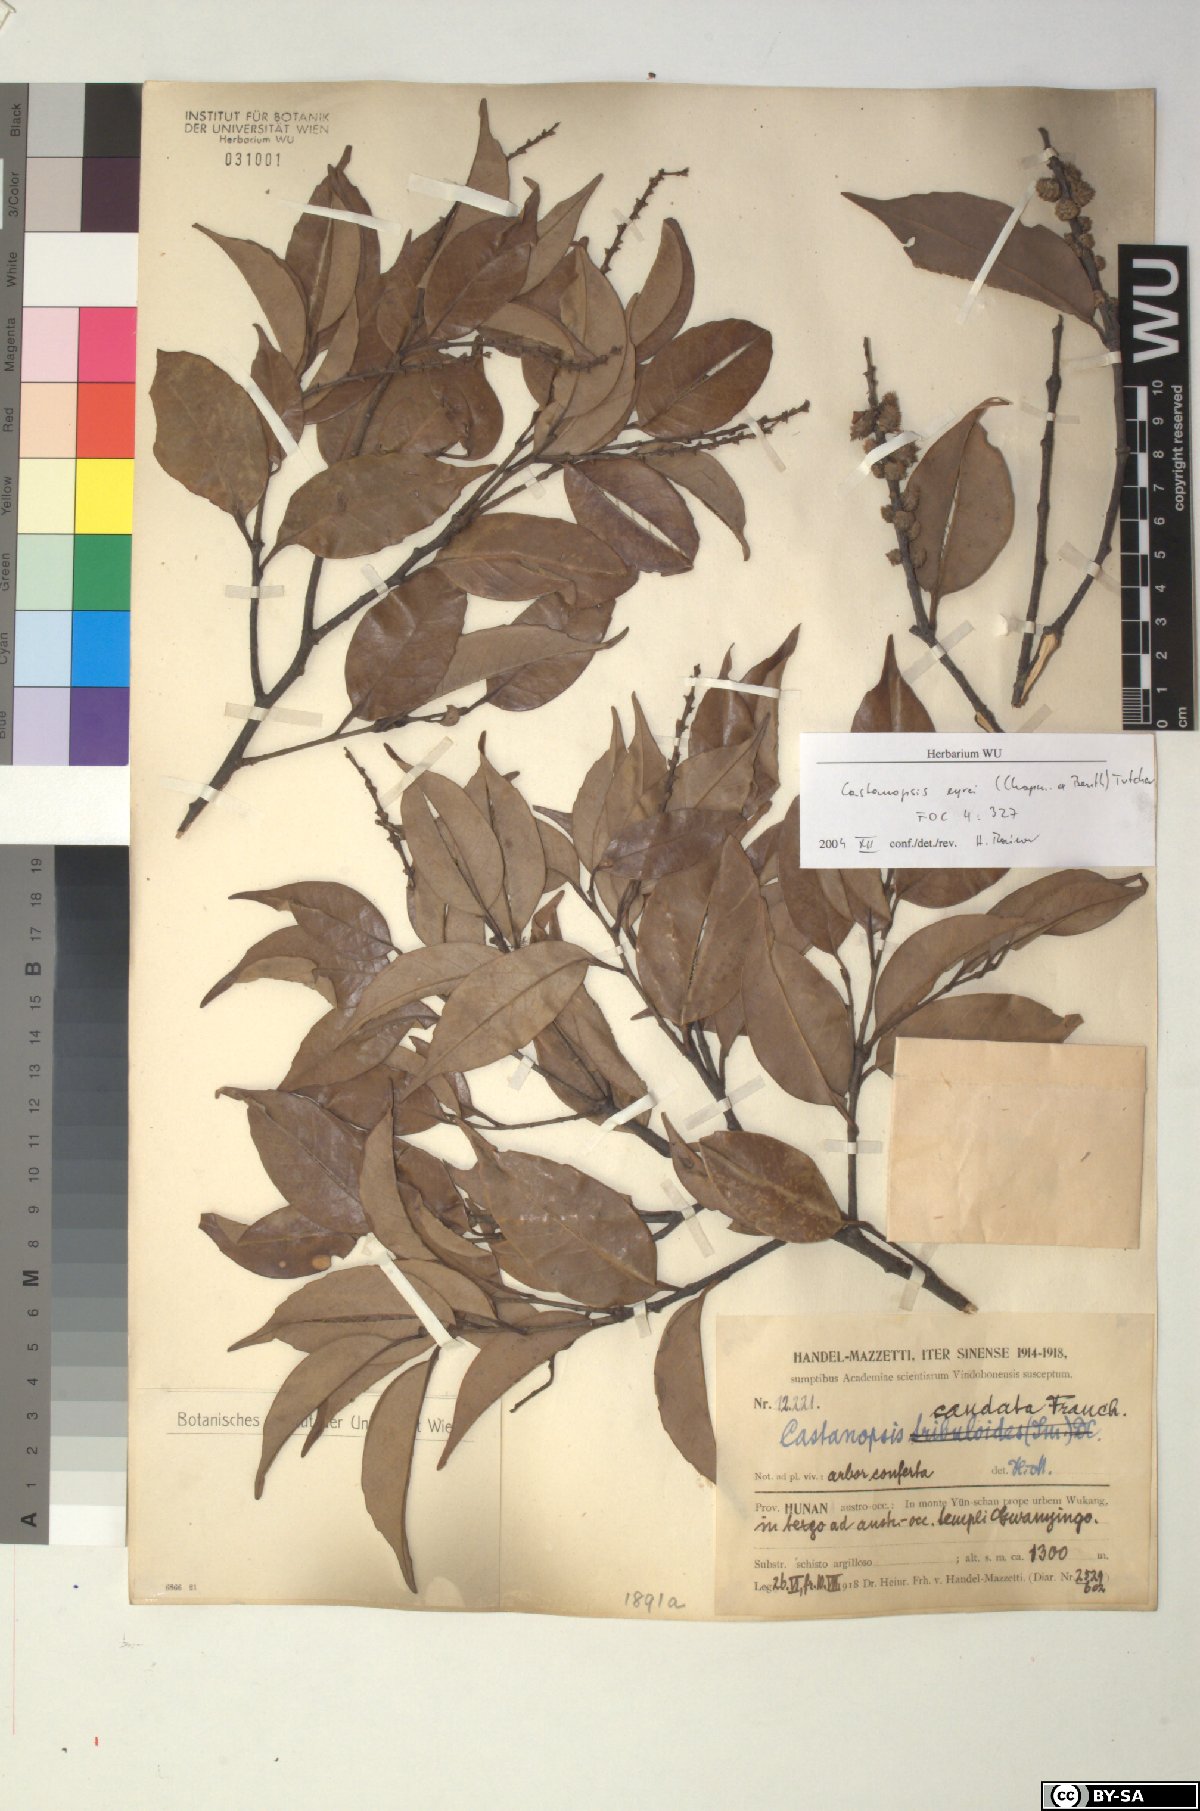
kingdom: Plantae
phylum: Tracheophyta
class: Magnoliopsida
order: Fagales
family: Fagaceae
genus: Castanopsis
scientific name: Castanopsis eyrei
